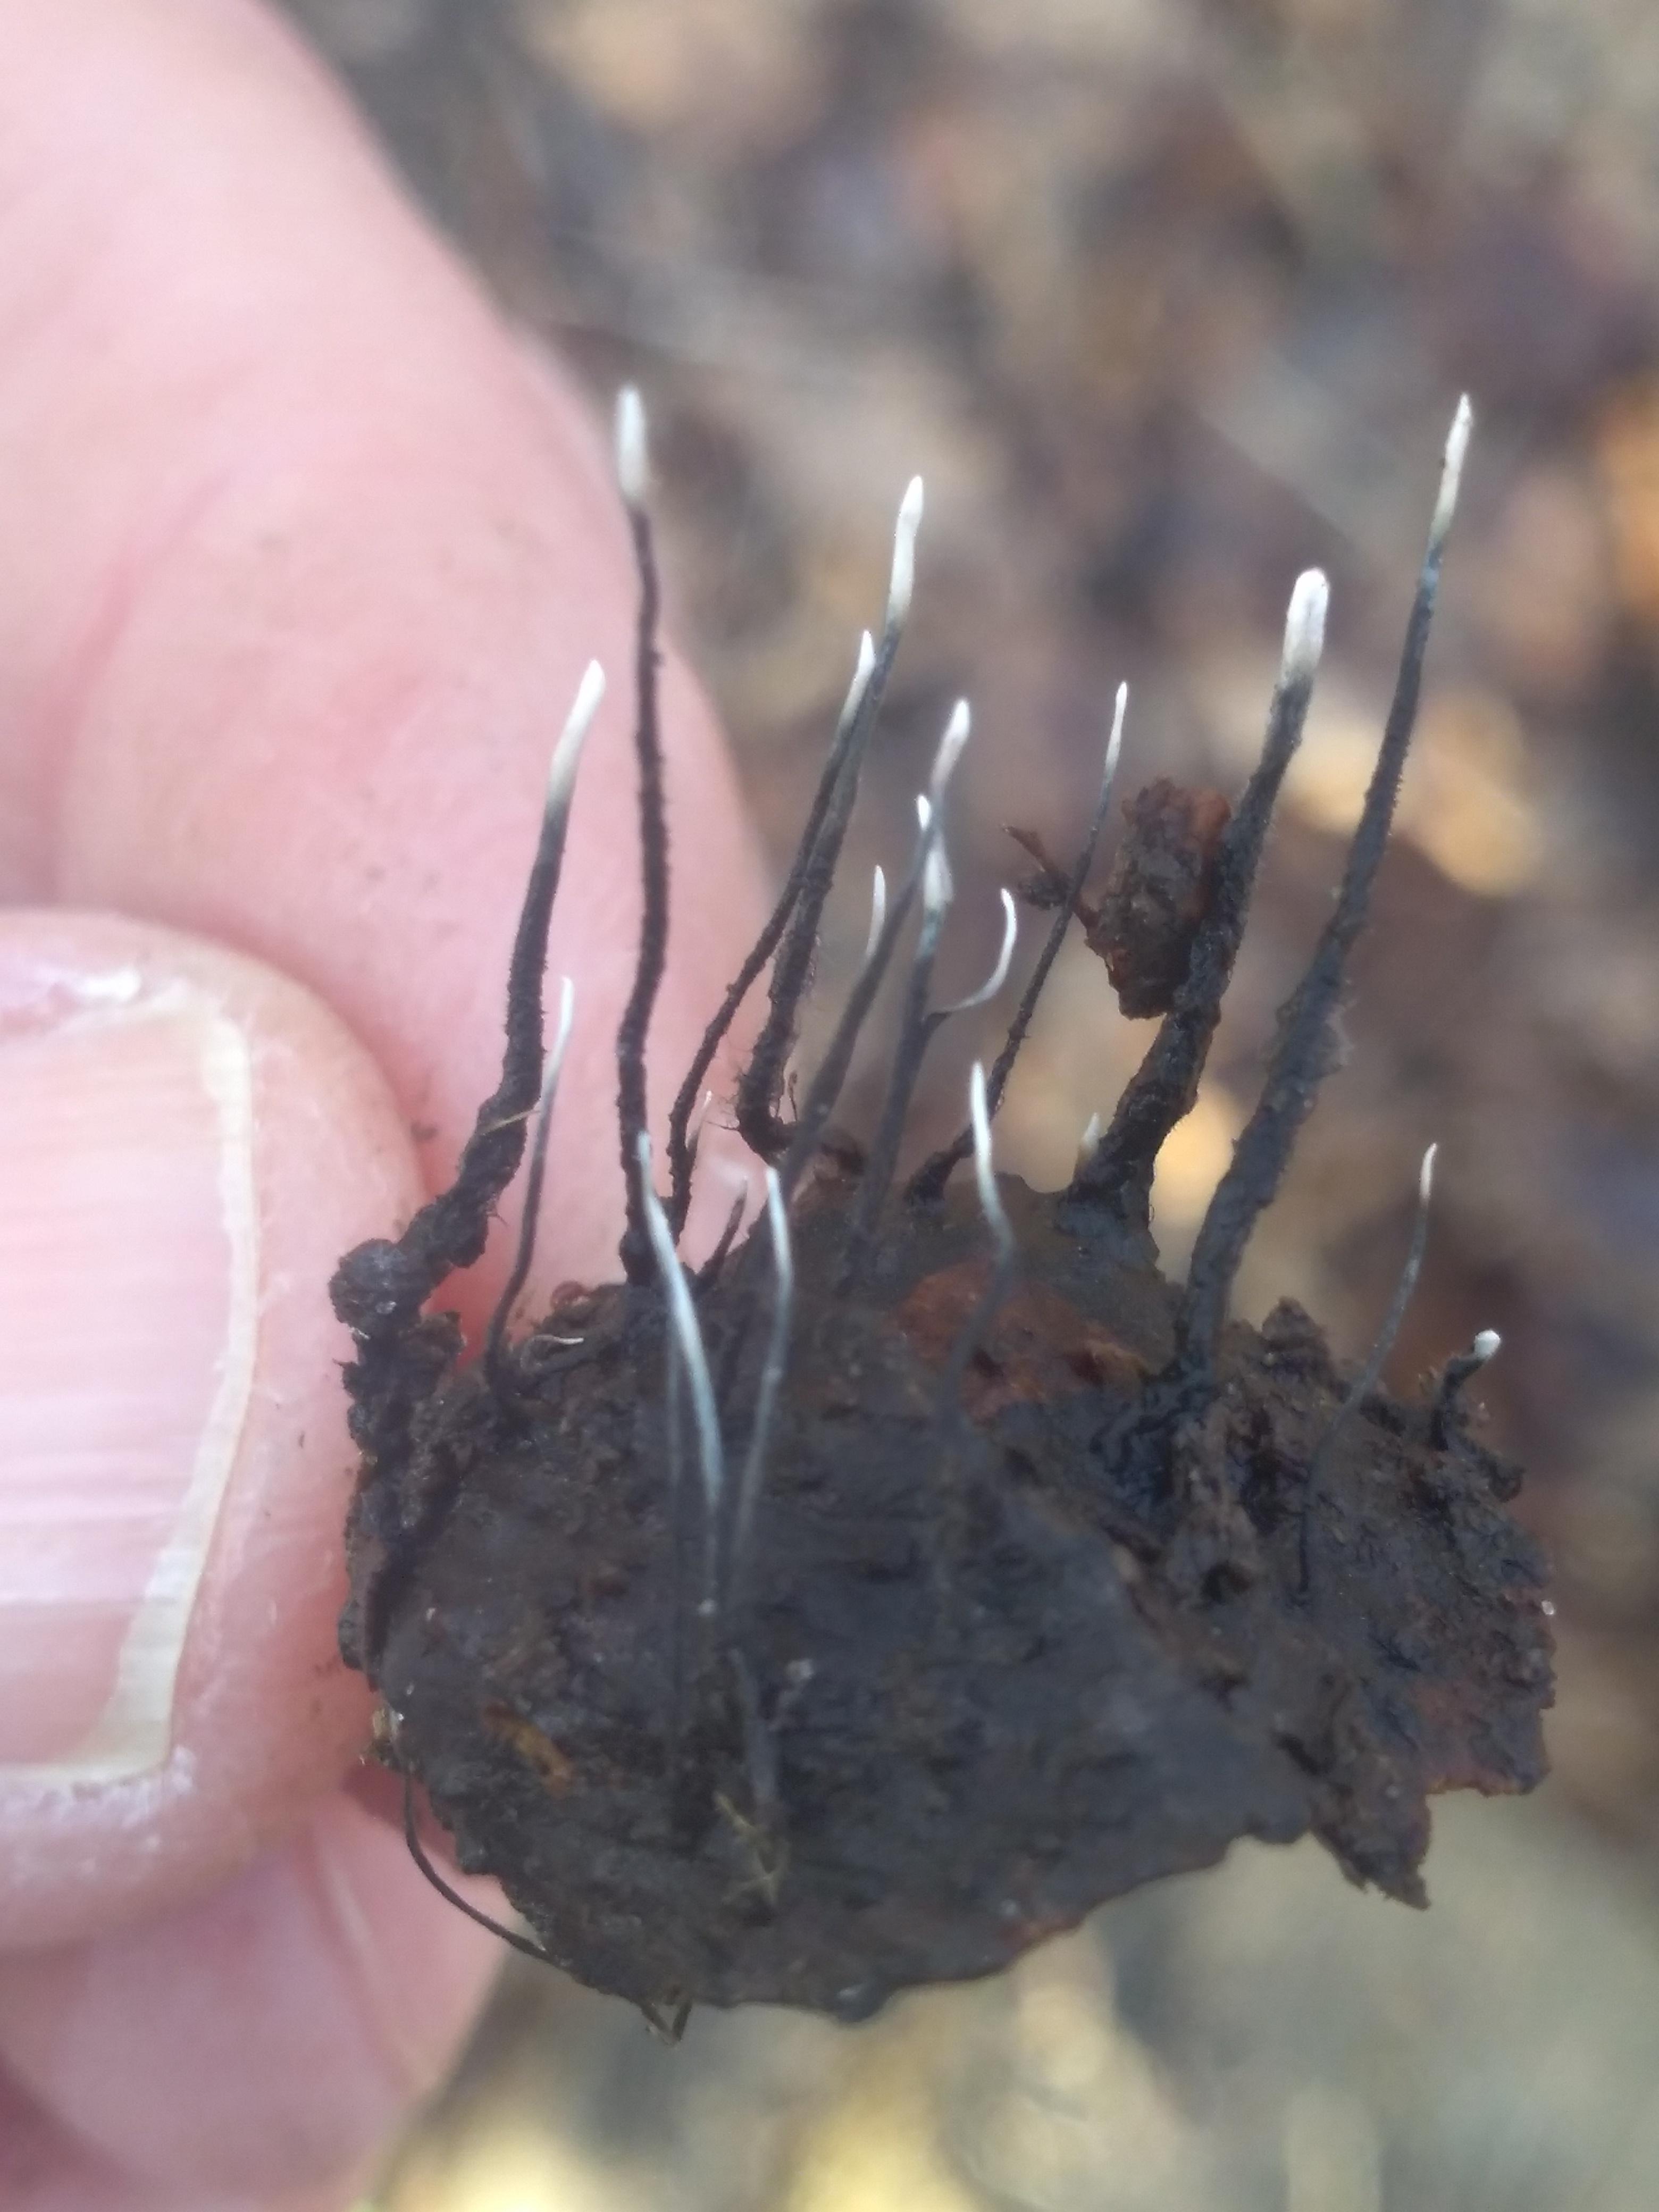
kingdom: Fungi
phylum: Ascomycota
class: Sordariomycetes
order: Xylariales
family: Xylariaceae
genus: Xylaria
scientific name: Xylaria carpophila
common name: bogskål-stødsvamp
